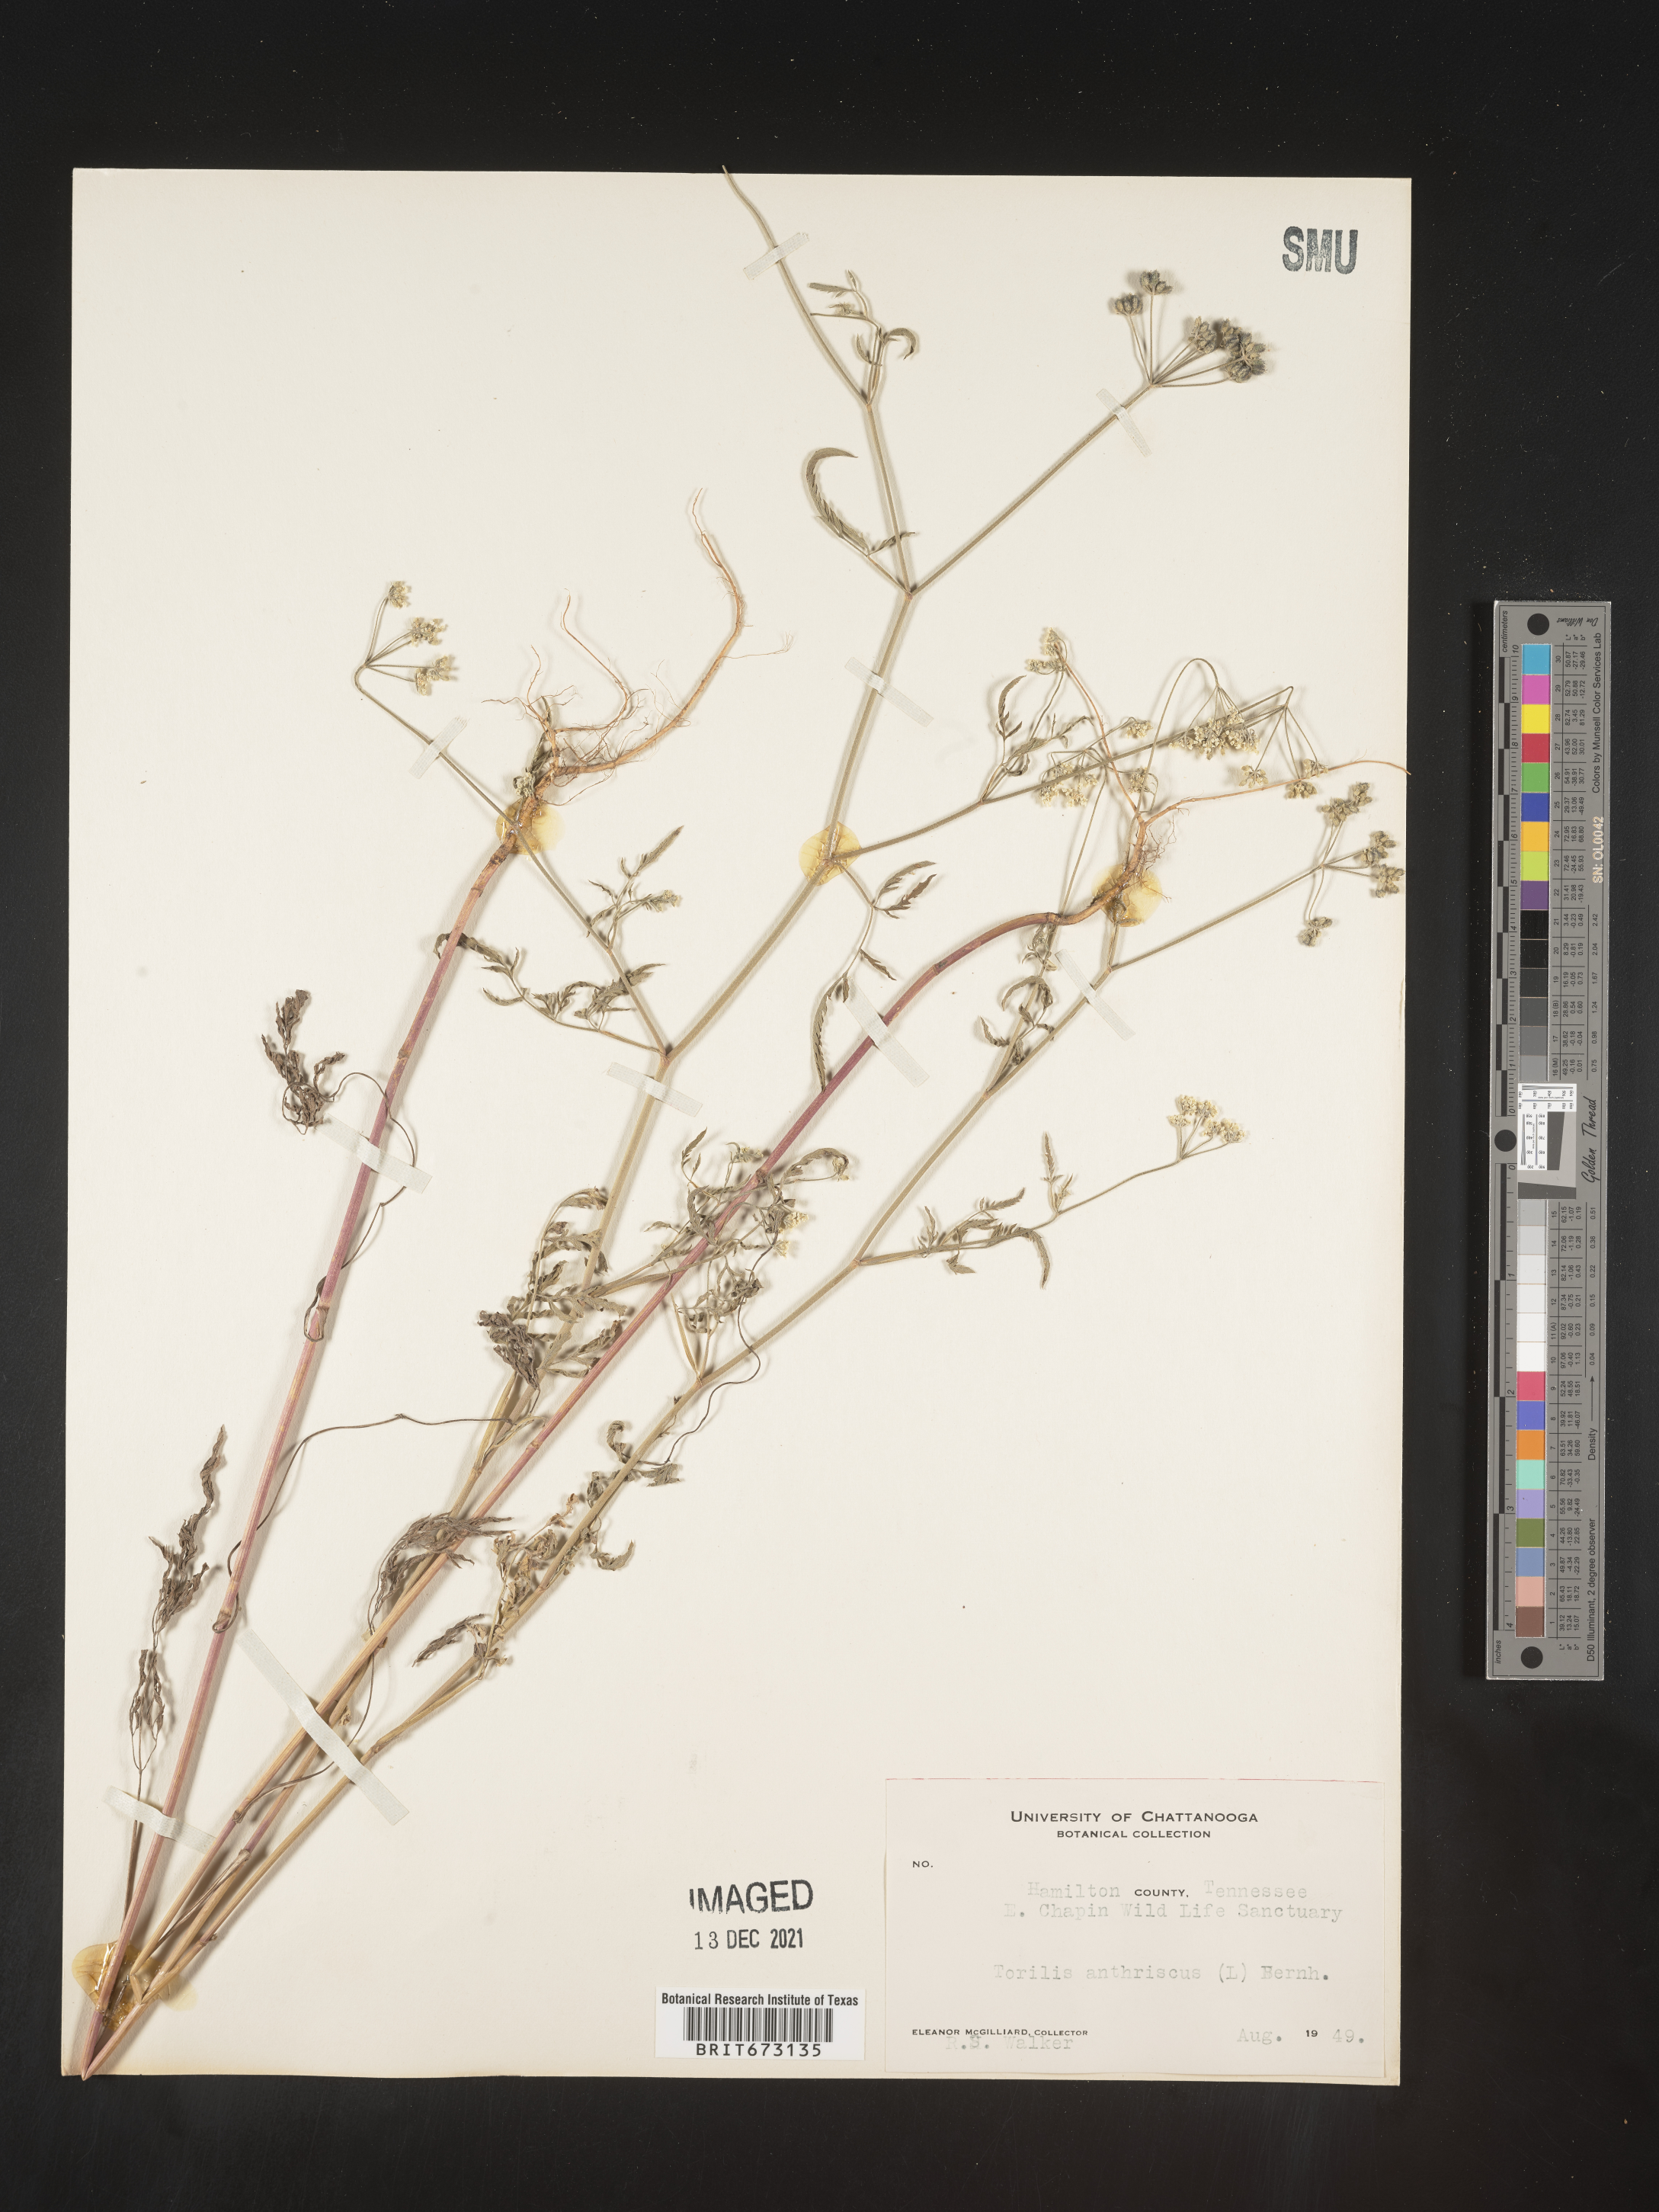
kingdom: Plantae
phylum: Tracheophyta
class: Magnoliopsida
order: Apiales
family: Apiaceae
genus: Torilis
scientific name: Torilis arvensis
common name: Spreading hedge-parsley
